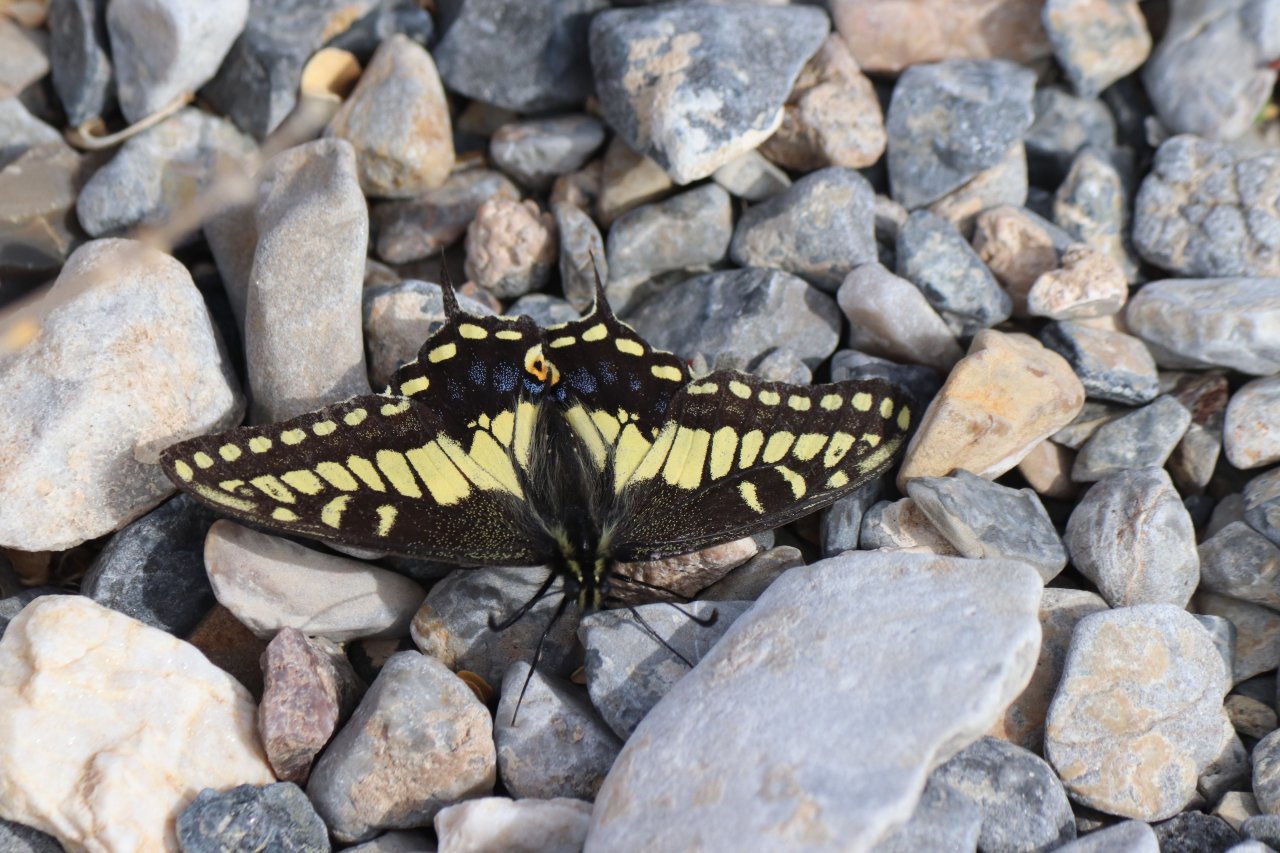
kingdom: Animalia
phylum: Arthropoda
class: Insecta
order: Lepidoptera
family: Papilionidae
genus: Papilio
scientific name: Papilio zelicaon
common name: Anise Swallowtail
